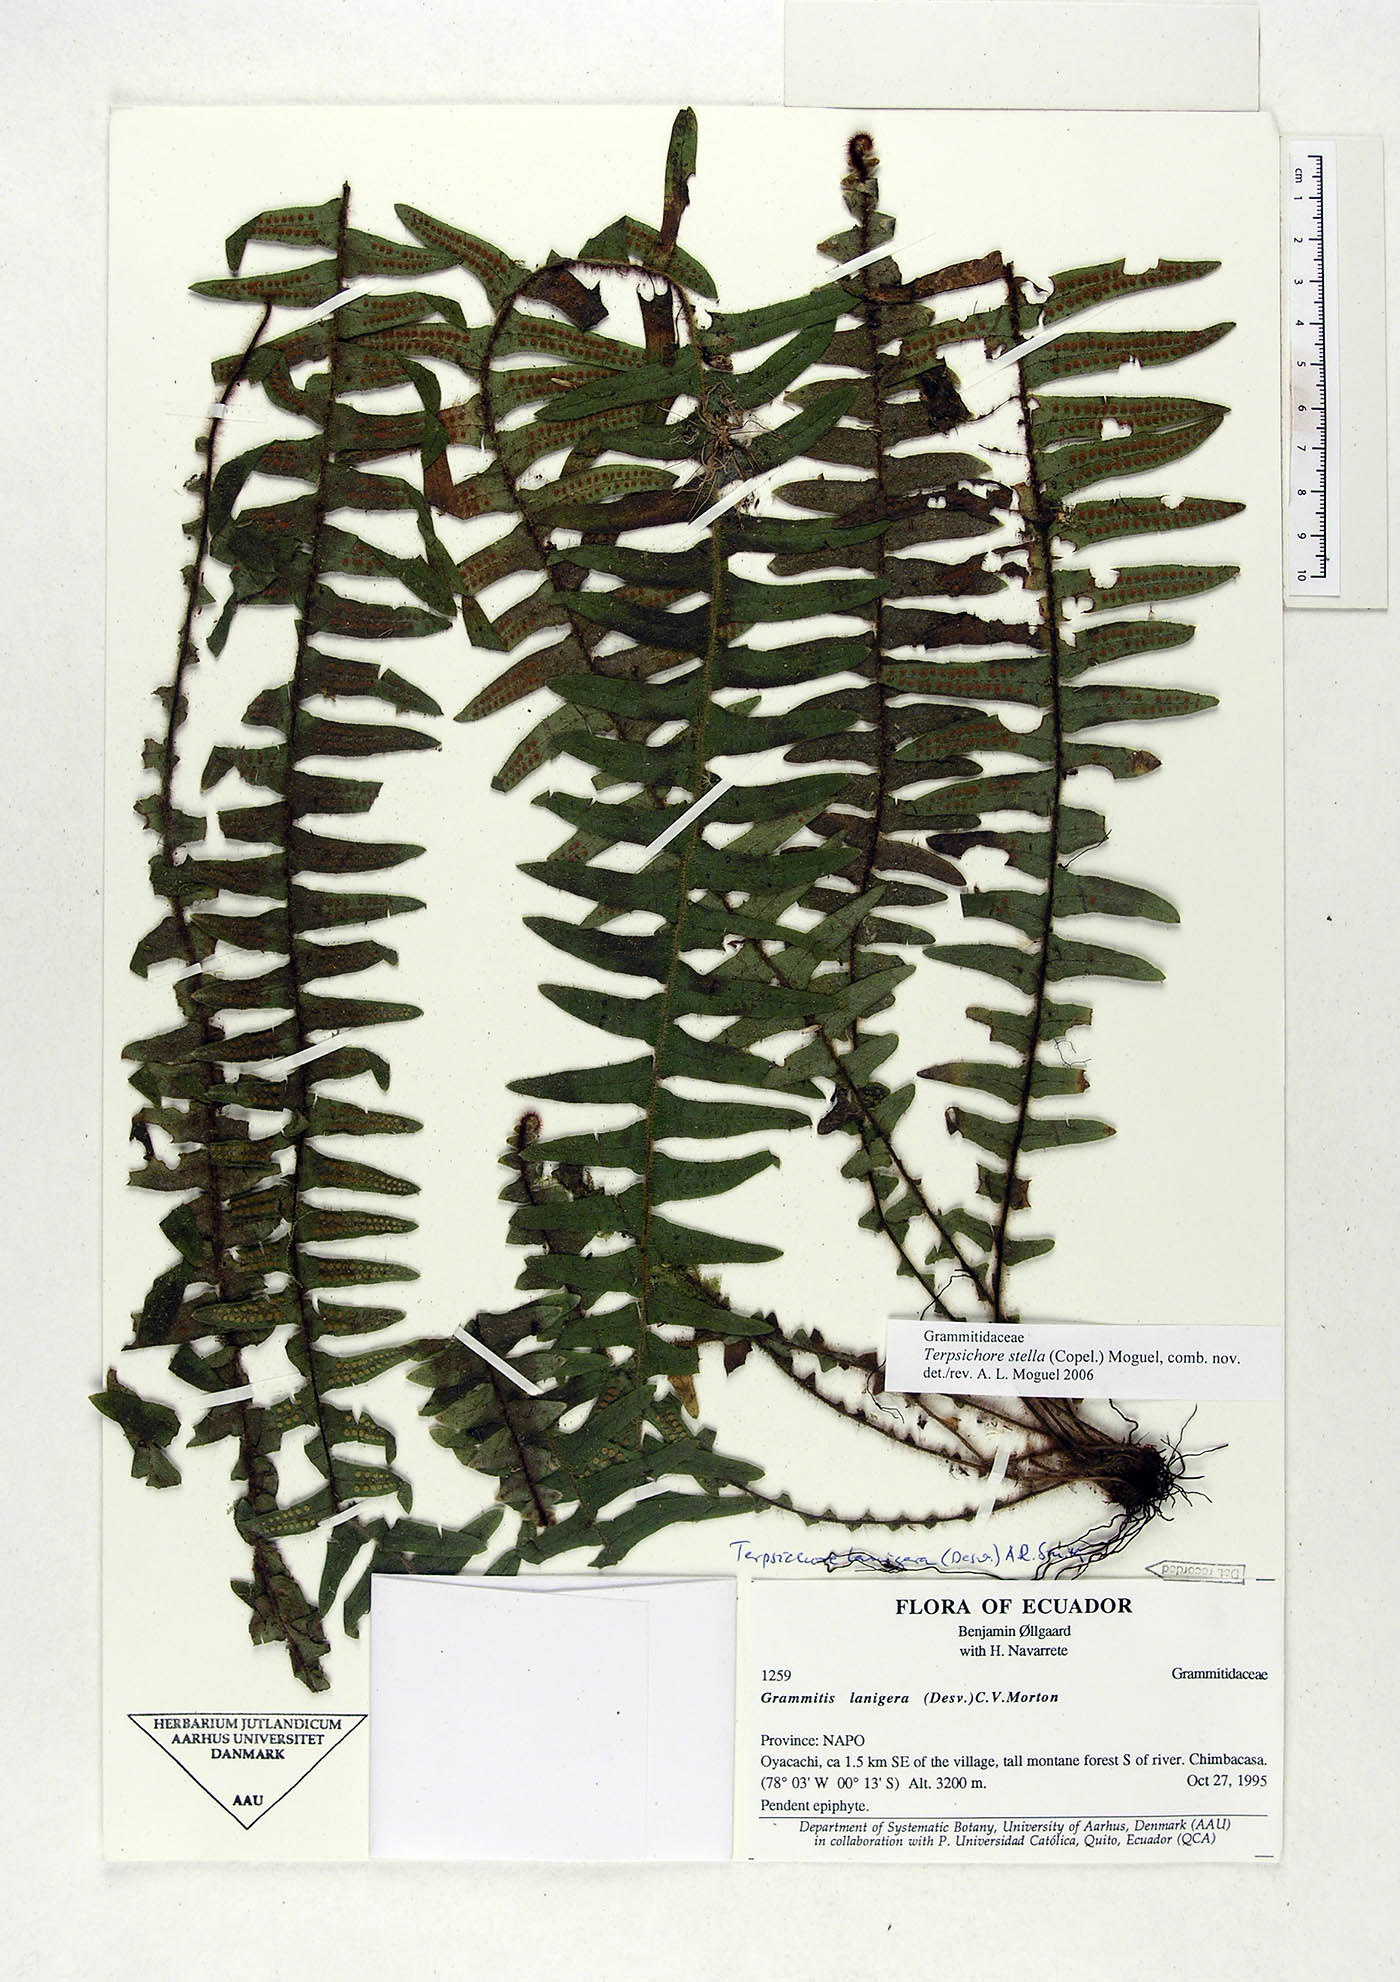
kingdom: Plantae
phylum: Tracheophyta
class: Polypodiopsida
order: Polypodiales
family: Polypodiaceae
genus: Alansmia
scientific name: Alansmia stella
